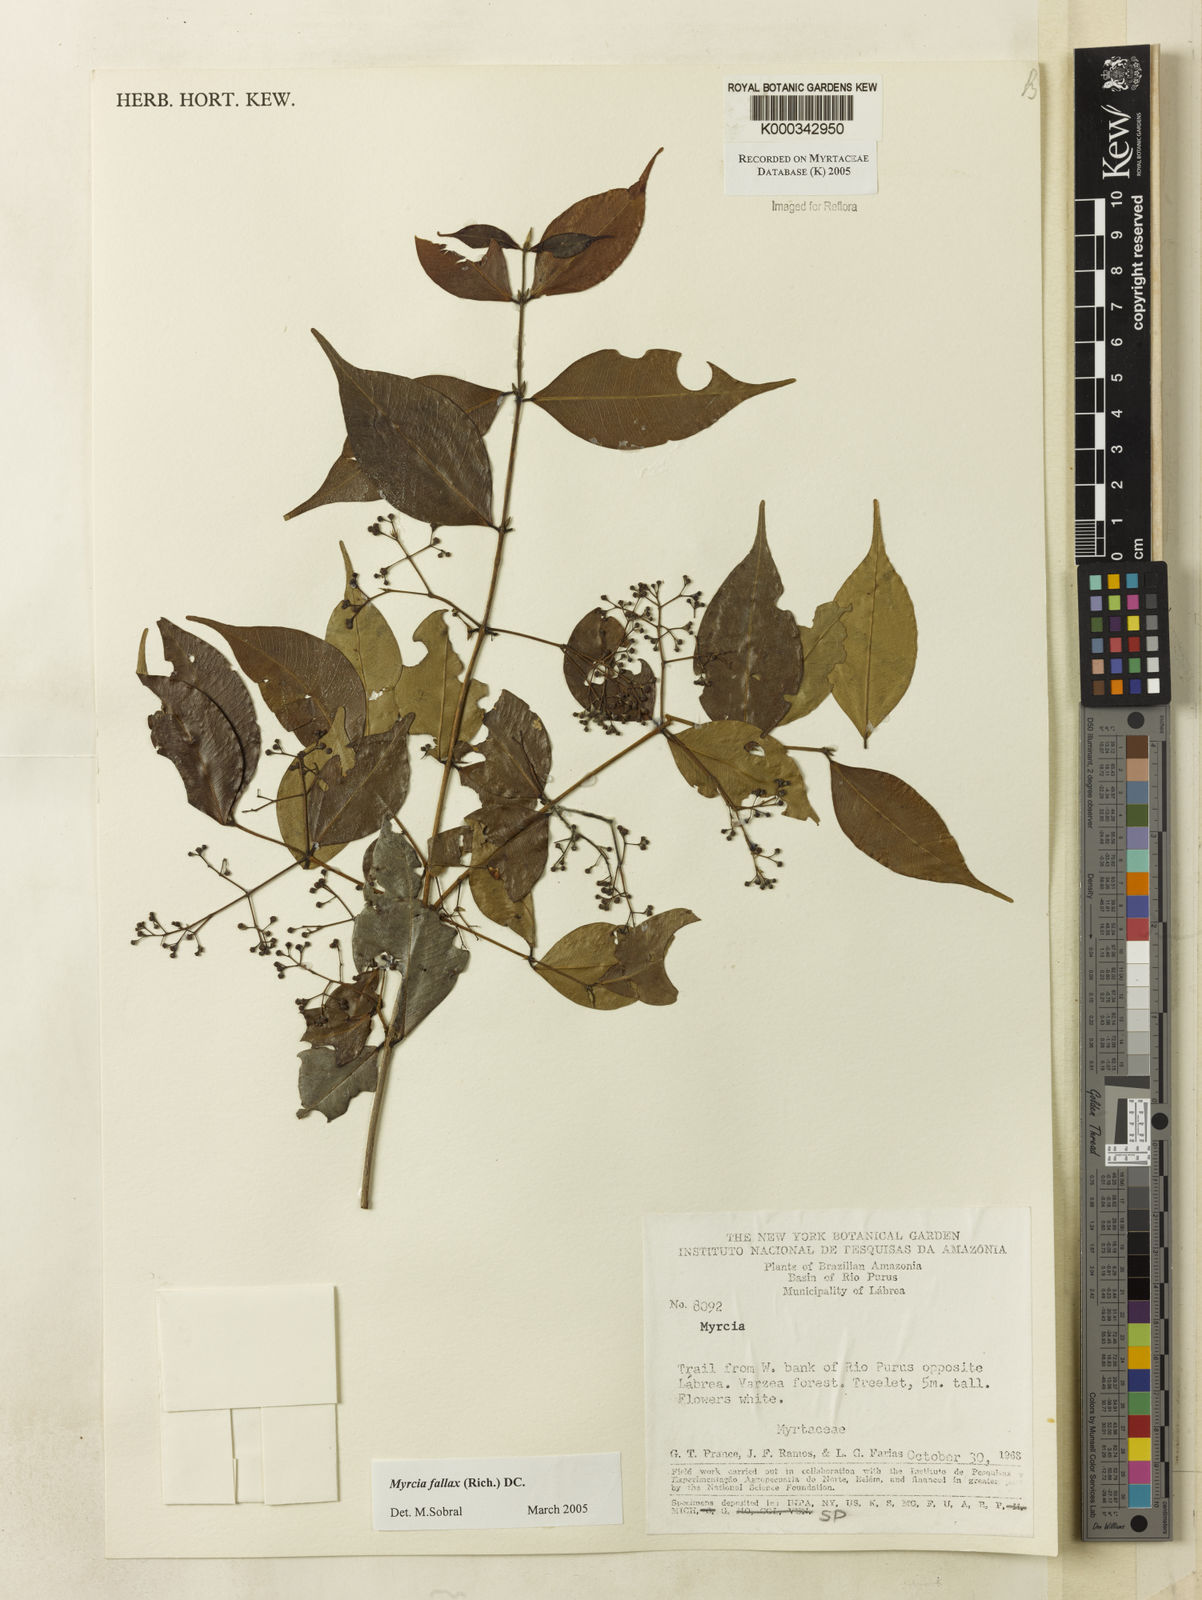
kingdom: Plantae
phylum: Tracheophyta
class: Magnoliopsida
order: Myrtales
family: Myrtaceae
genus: Myrcia
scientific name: Myrcia splendens
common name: Surinam cherry
